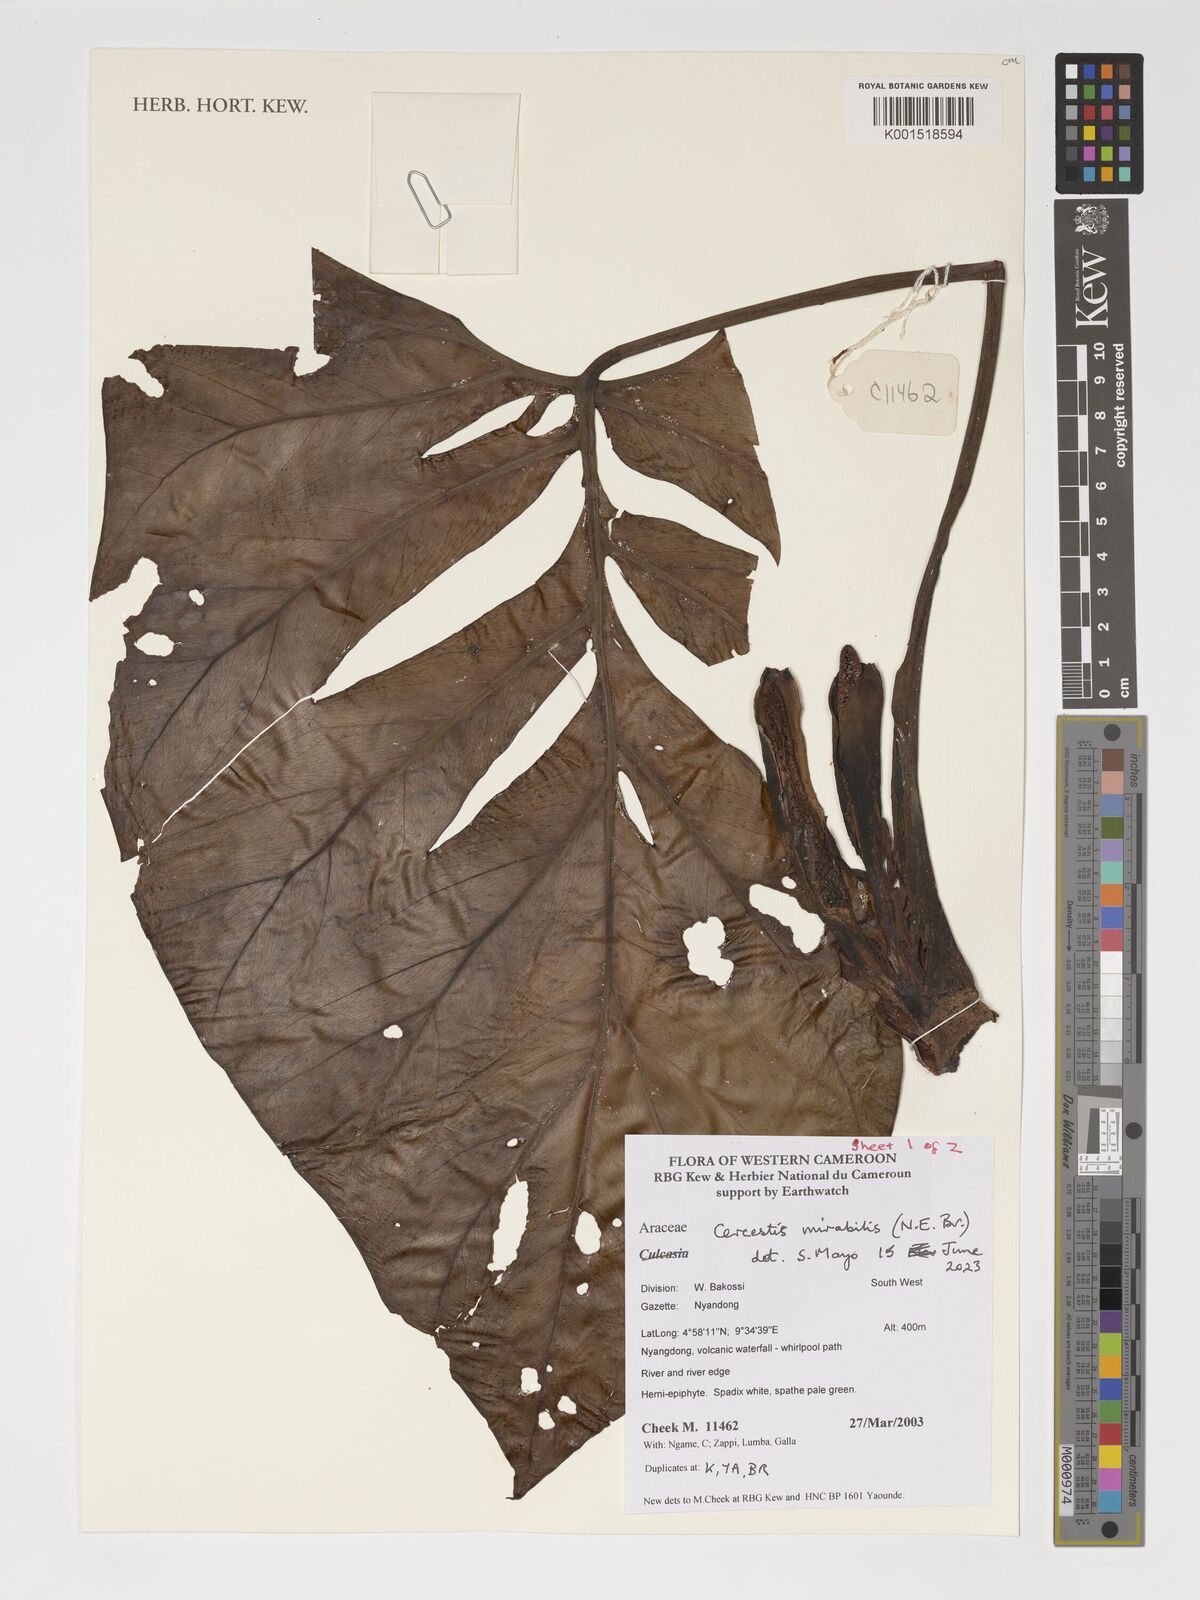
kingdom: Plantae
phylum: Tracheophyta
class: Liliopsida
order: Alismatales
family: Araceae
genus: Cercestis
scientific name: Cercestis mirabilis
